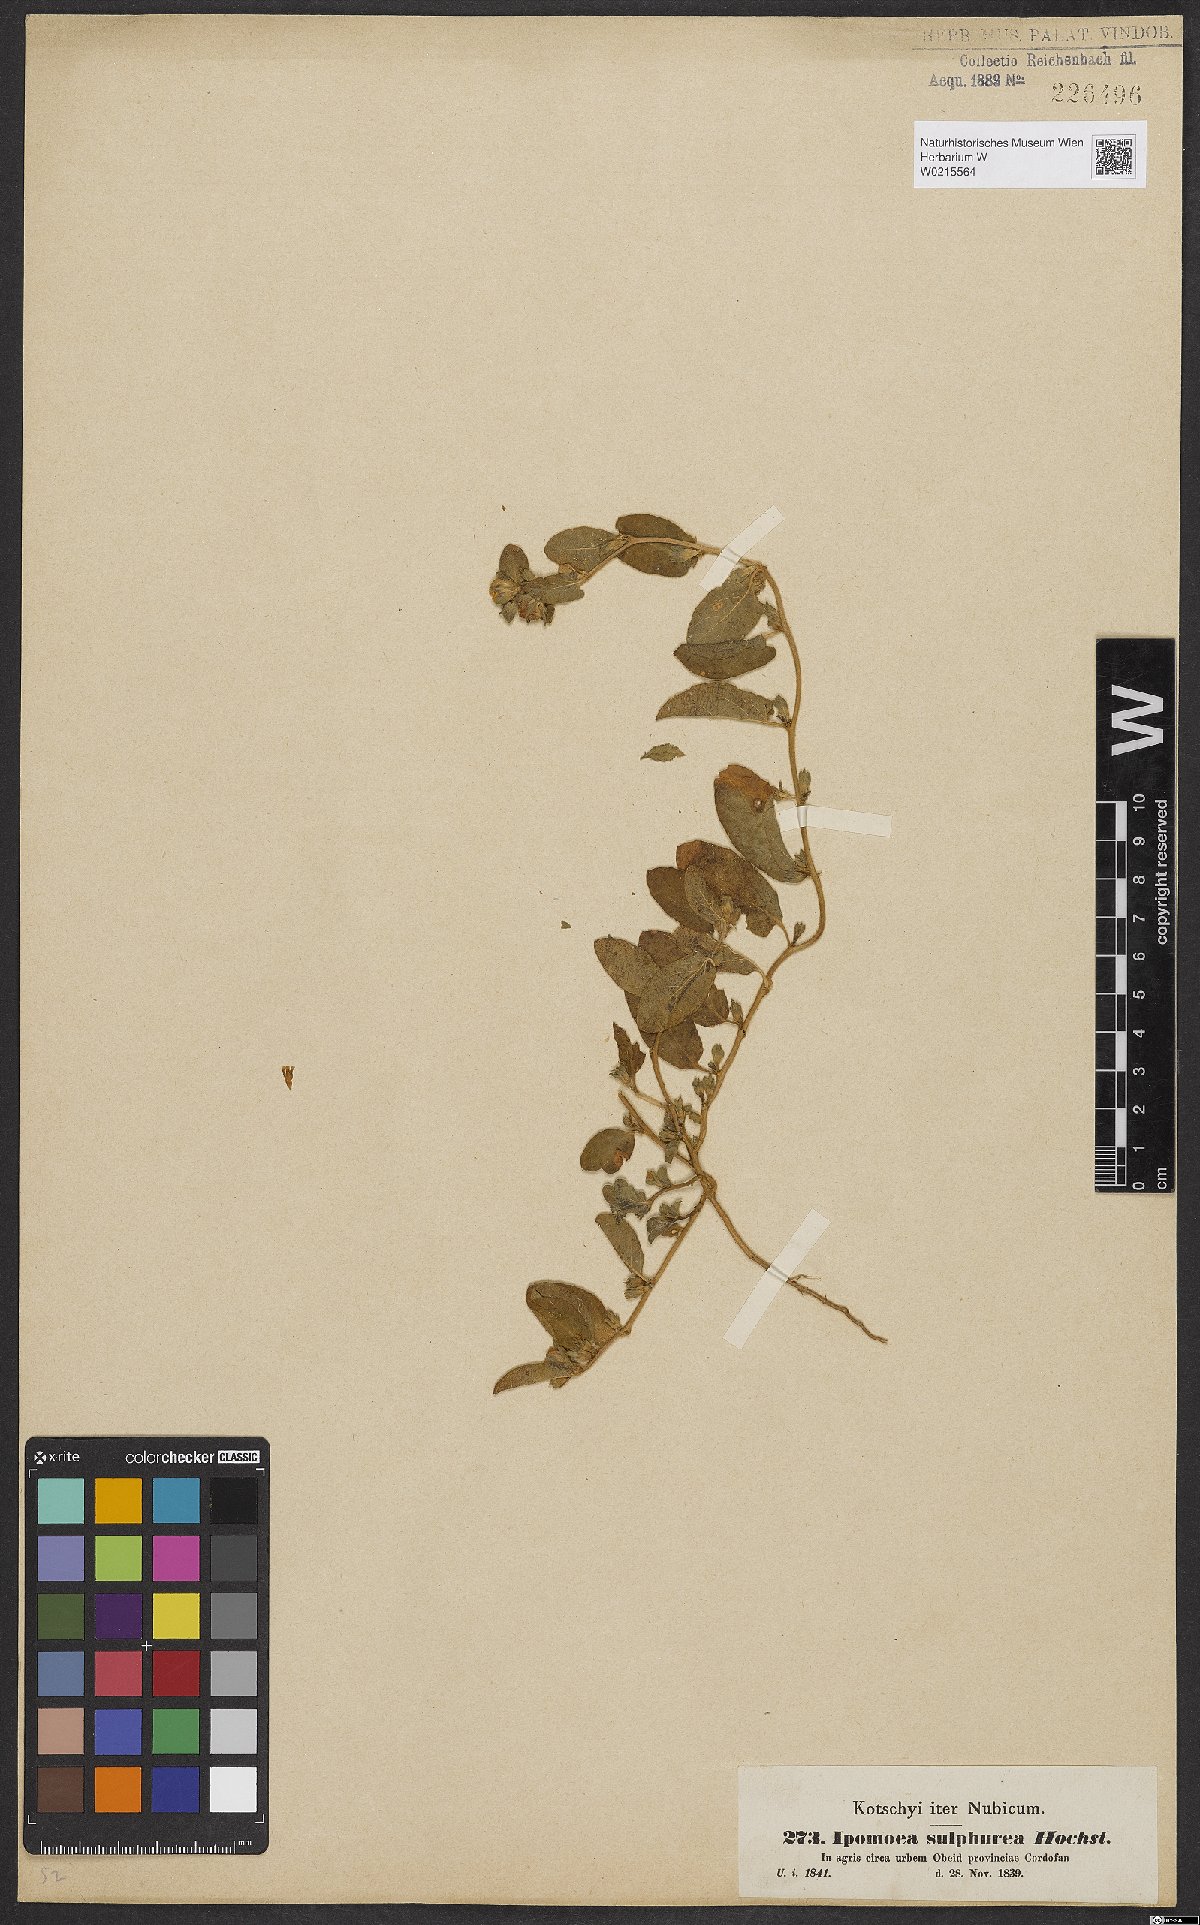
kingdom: Plantae
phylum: Tracheophyta
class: Magnoliopsida
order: Solanales
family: Convolvulaceae
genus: Ipomoea
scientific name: Ipomoea vagans
